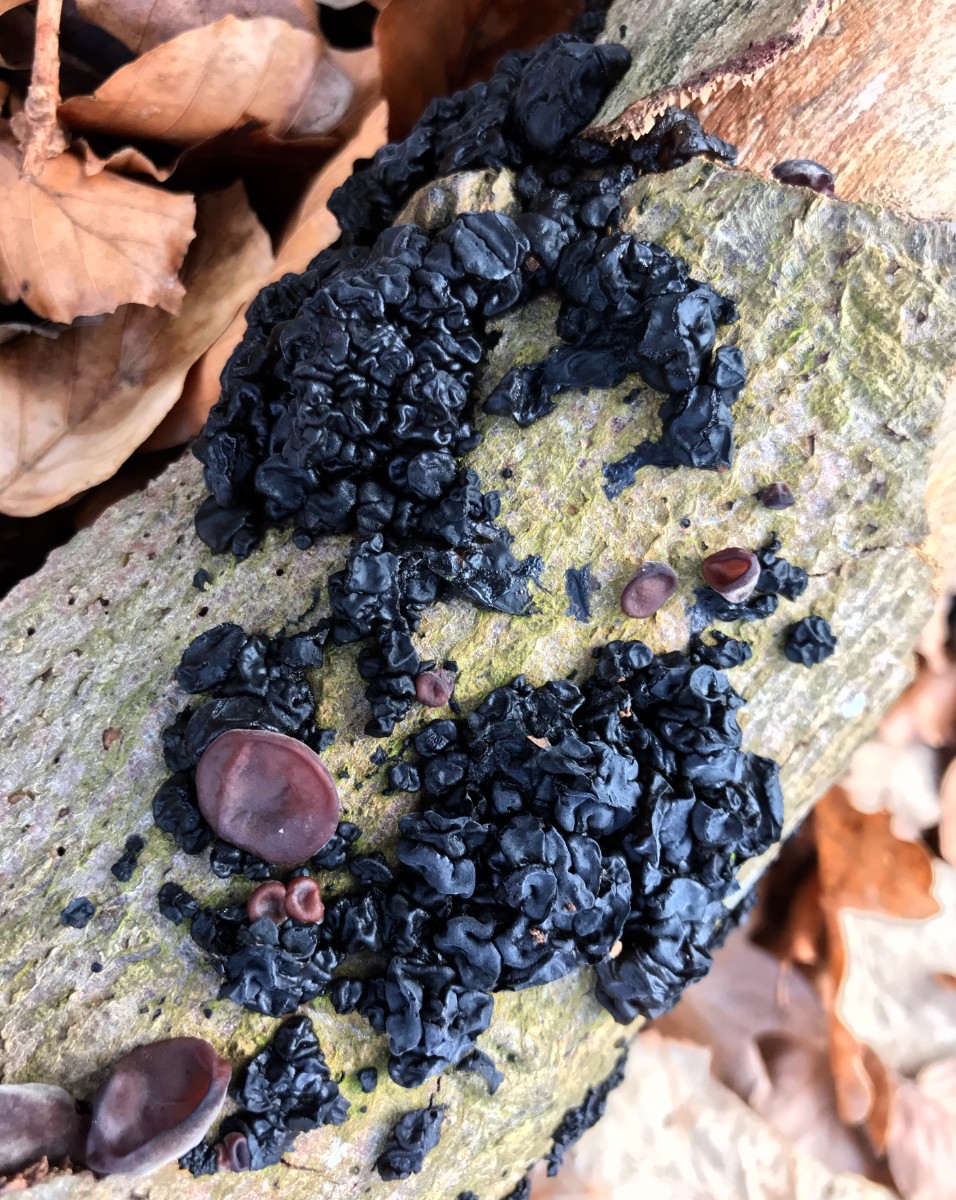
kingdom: Fungi
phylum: Basidiomycota
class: Agaricomycetes
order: Auriculariales
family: Auriculariaceae
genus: Exidia
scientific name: Exidia nigricans
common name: almindelig bævretop
